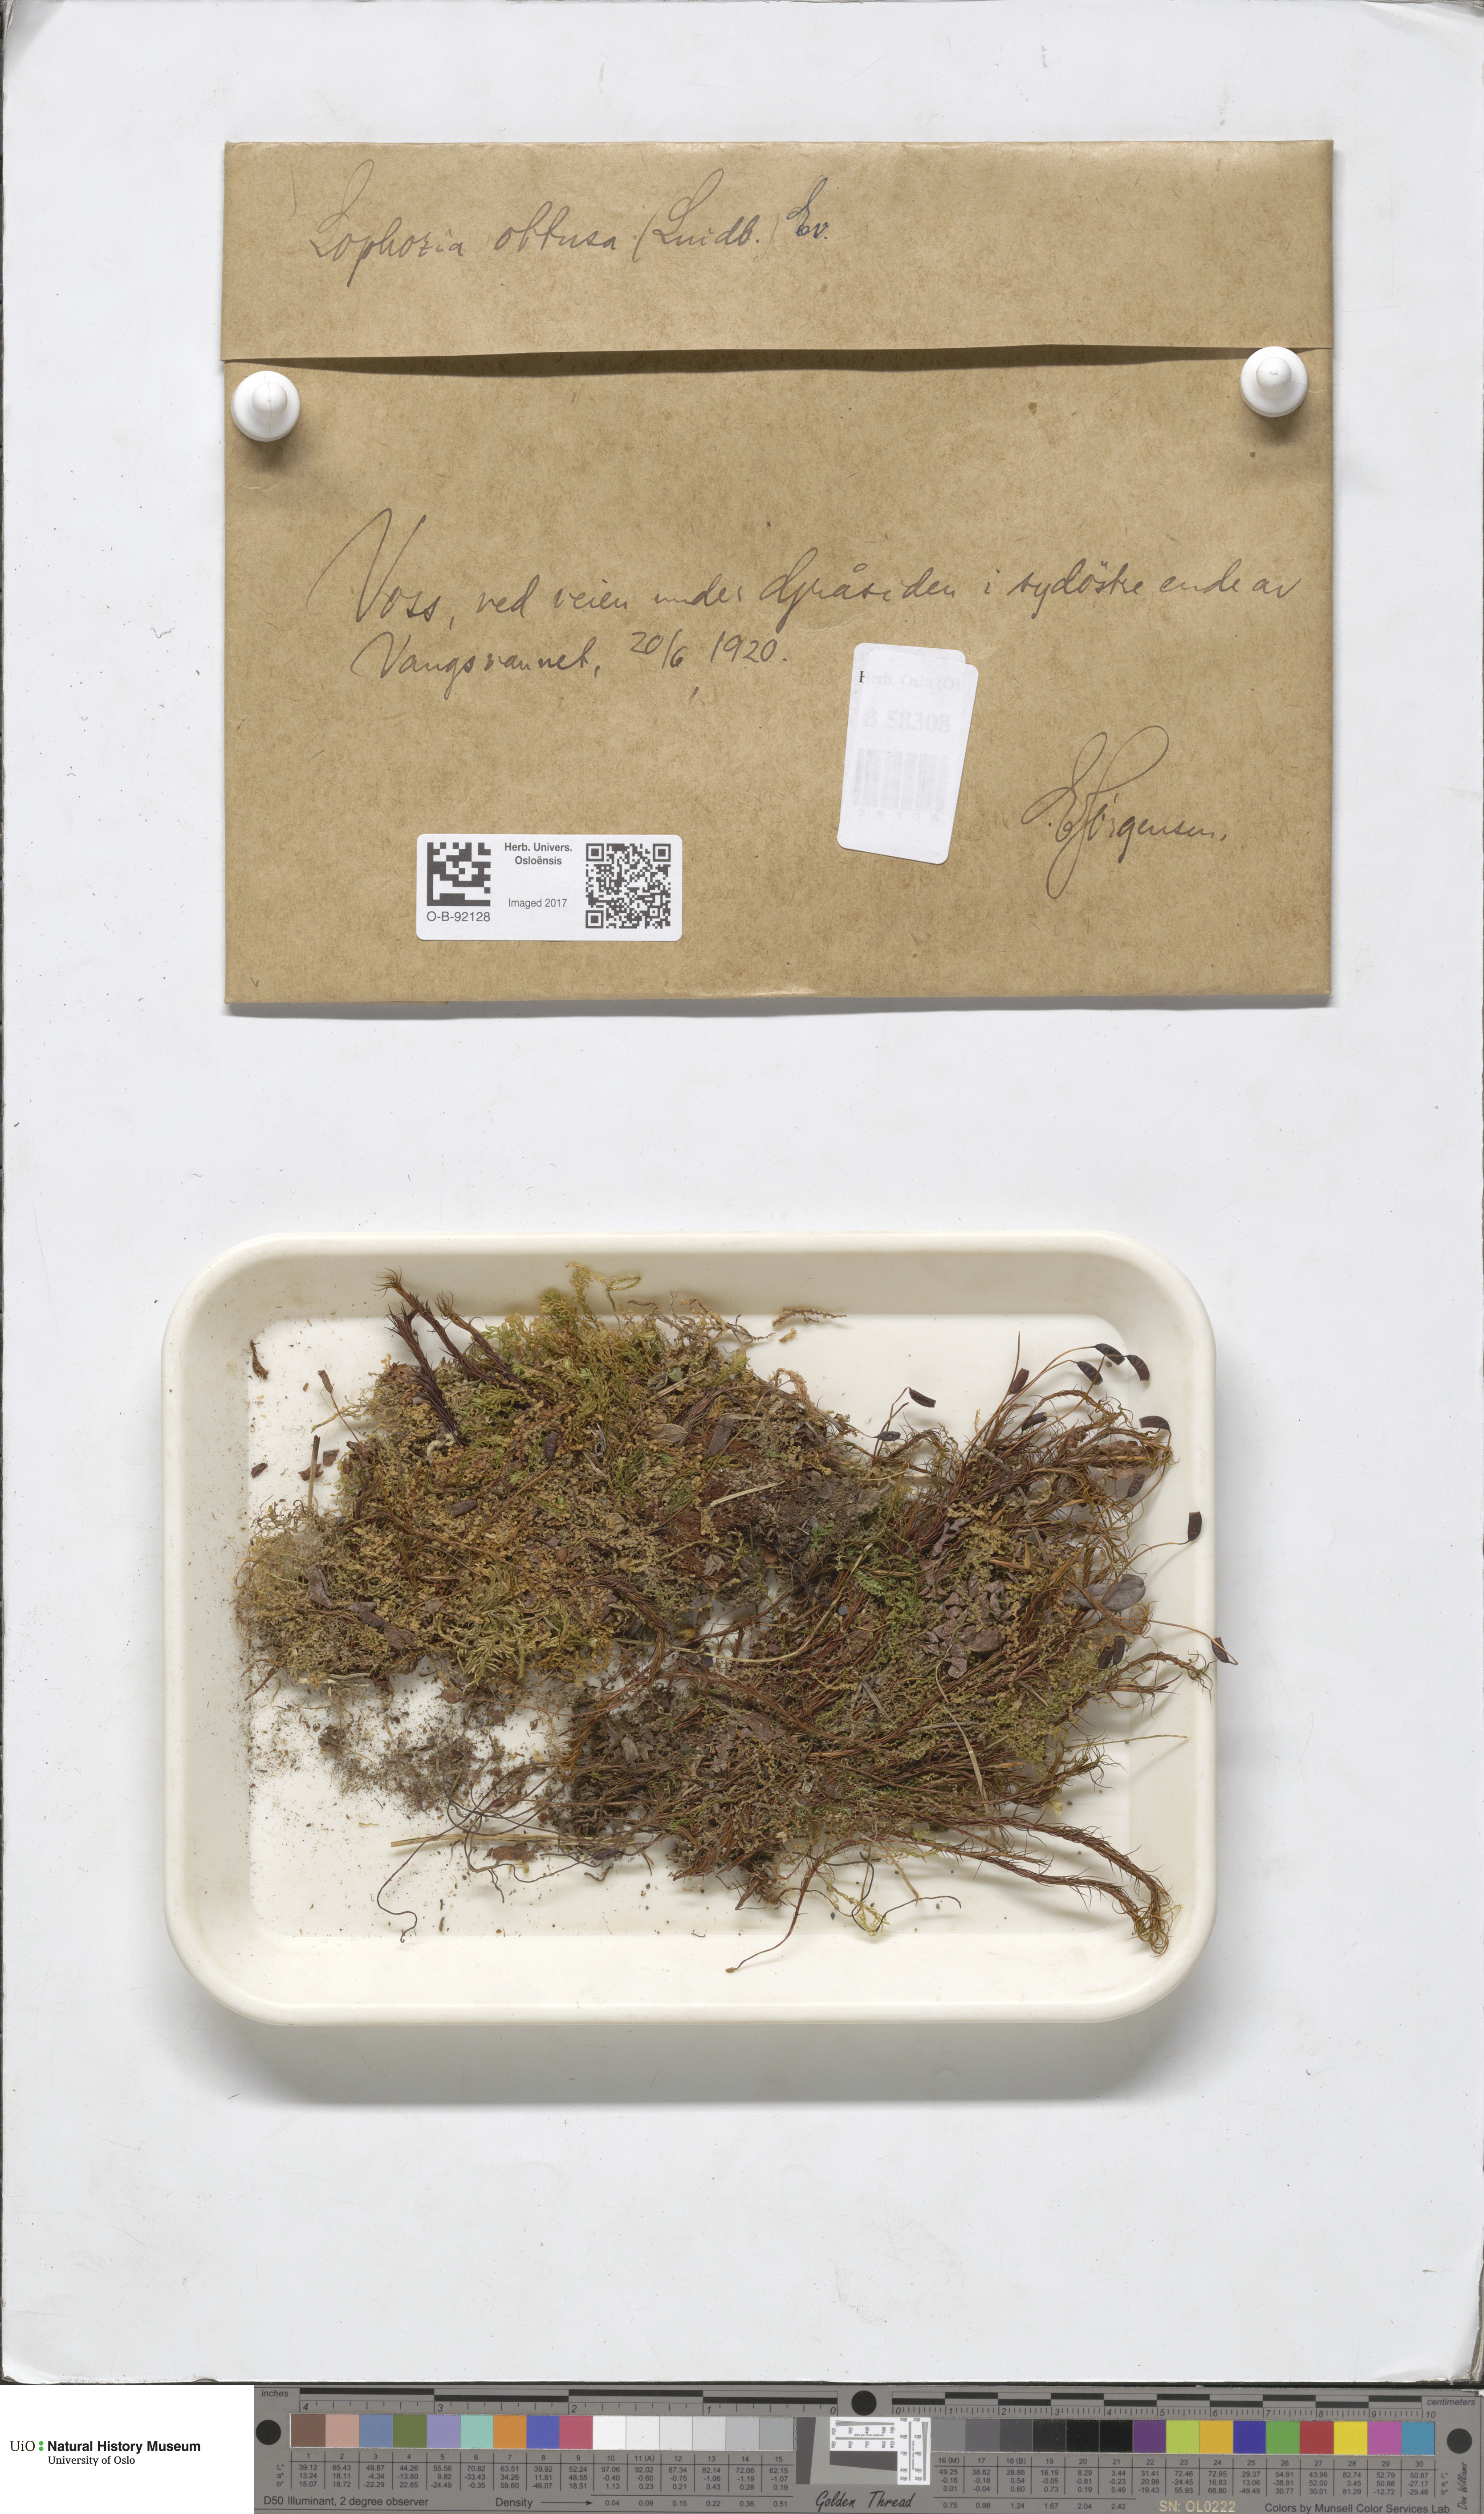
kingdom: Plantae
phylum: Marchantiophyta
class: Jungermanniopsida
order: Jungermanniales
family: Obtusifoliaceae
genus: Obtusifolium
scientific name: Obtusifolium obtusum
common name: Obtuse notchwort
